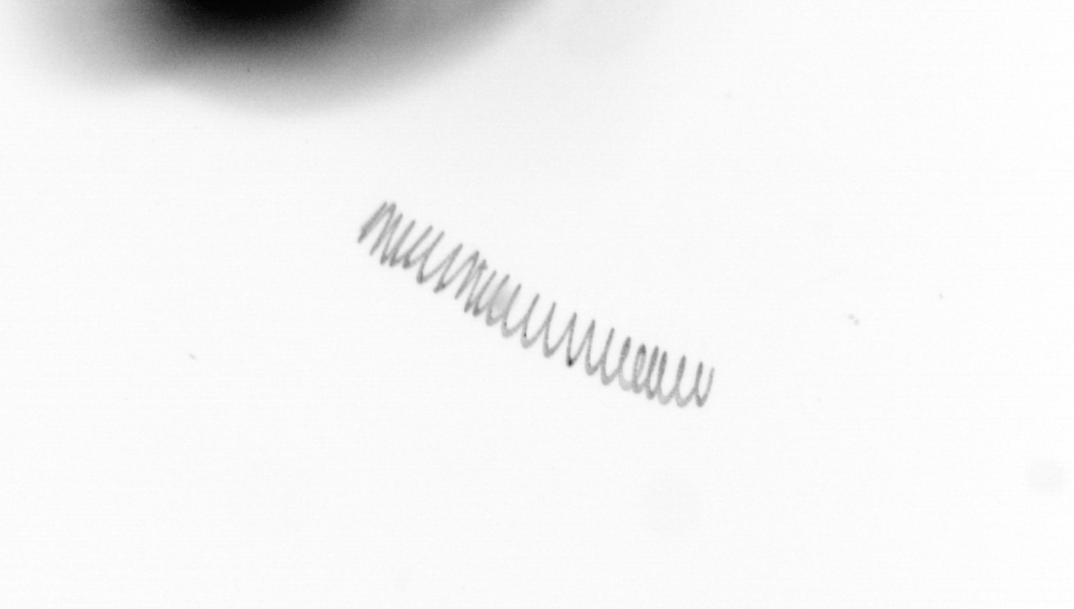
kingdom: Chromista
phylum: Ochrophyta
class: Bacillariophyceae
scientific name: Bacillariophyceae
